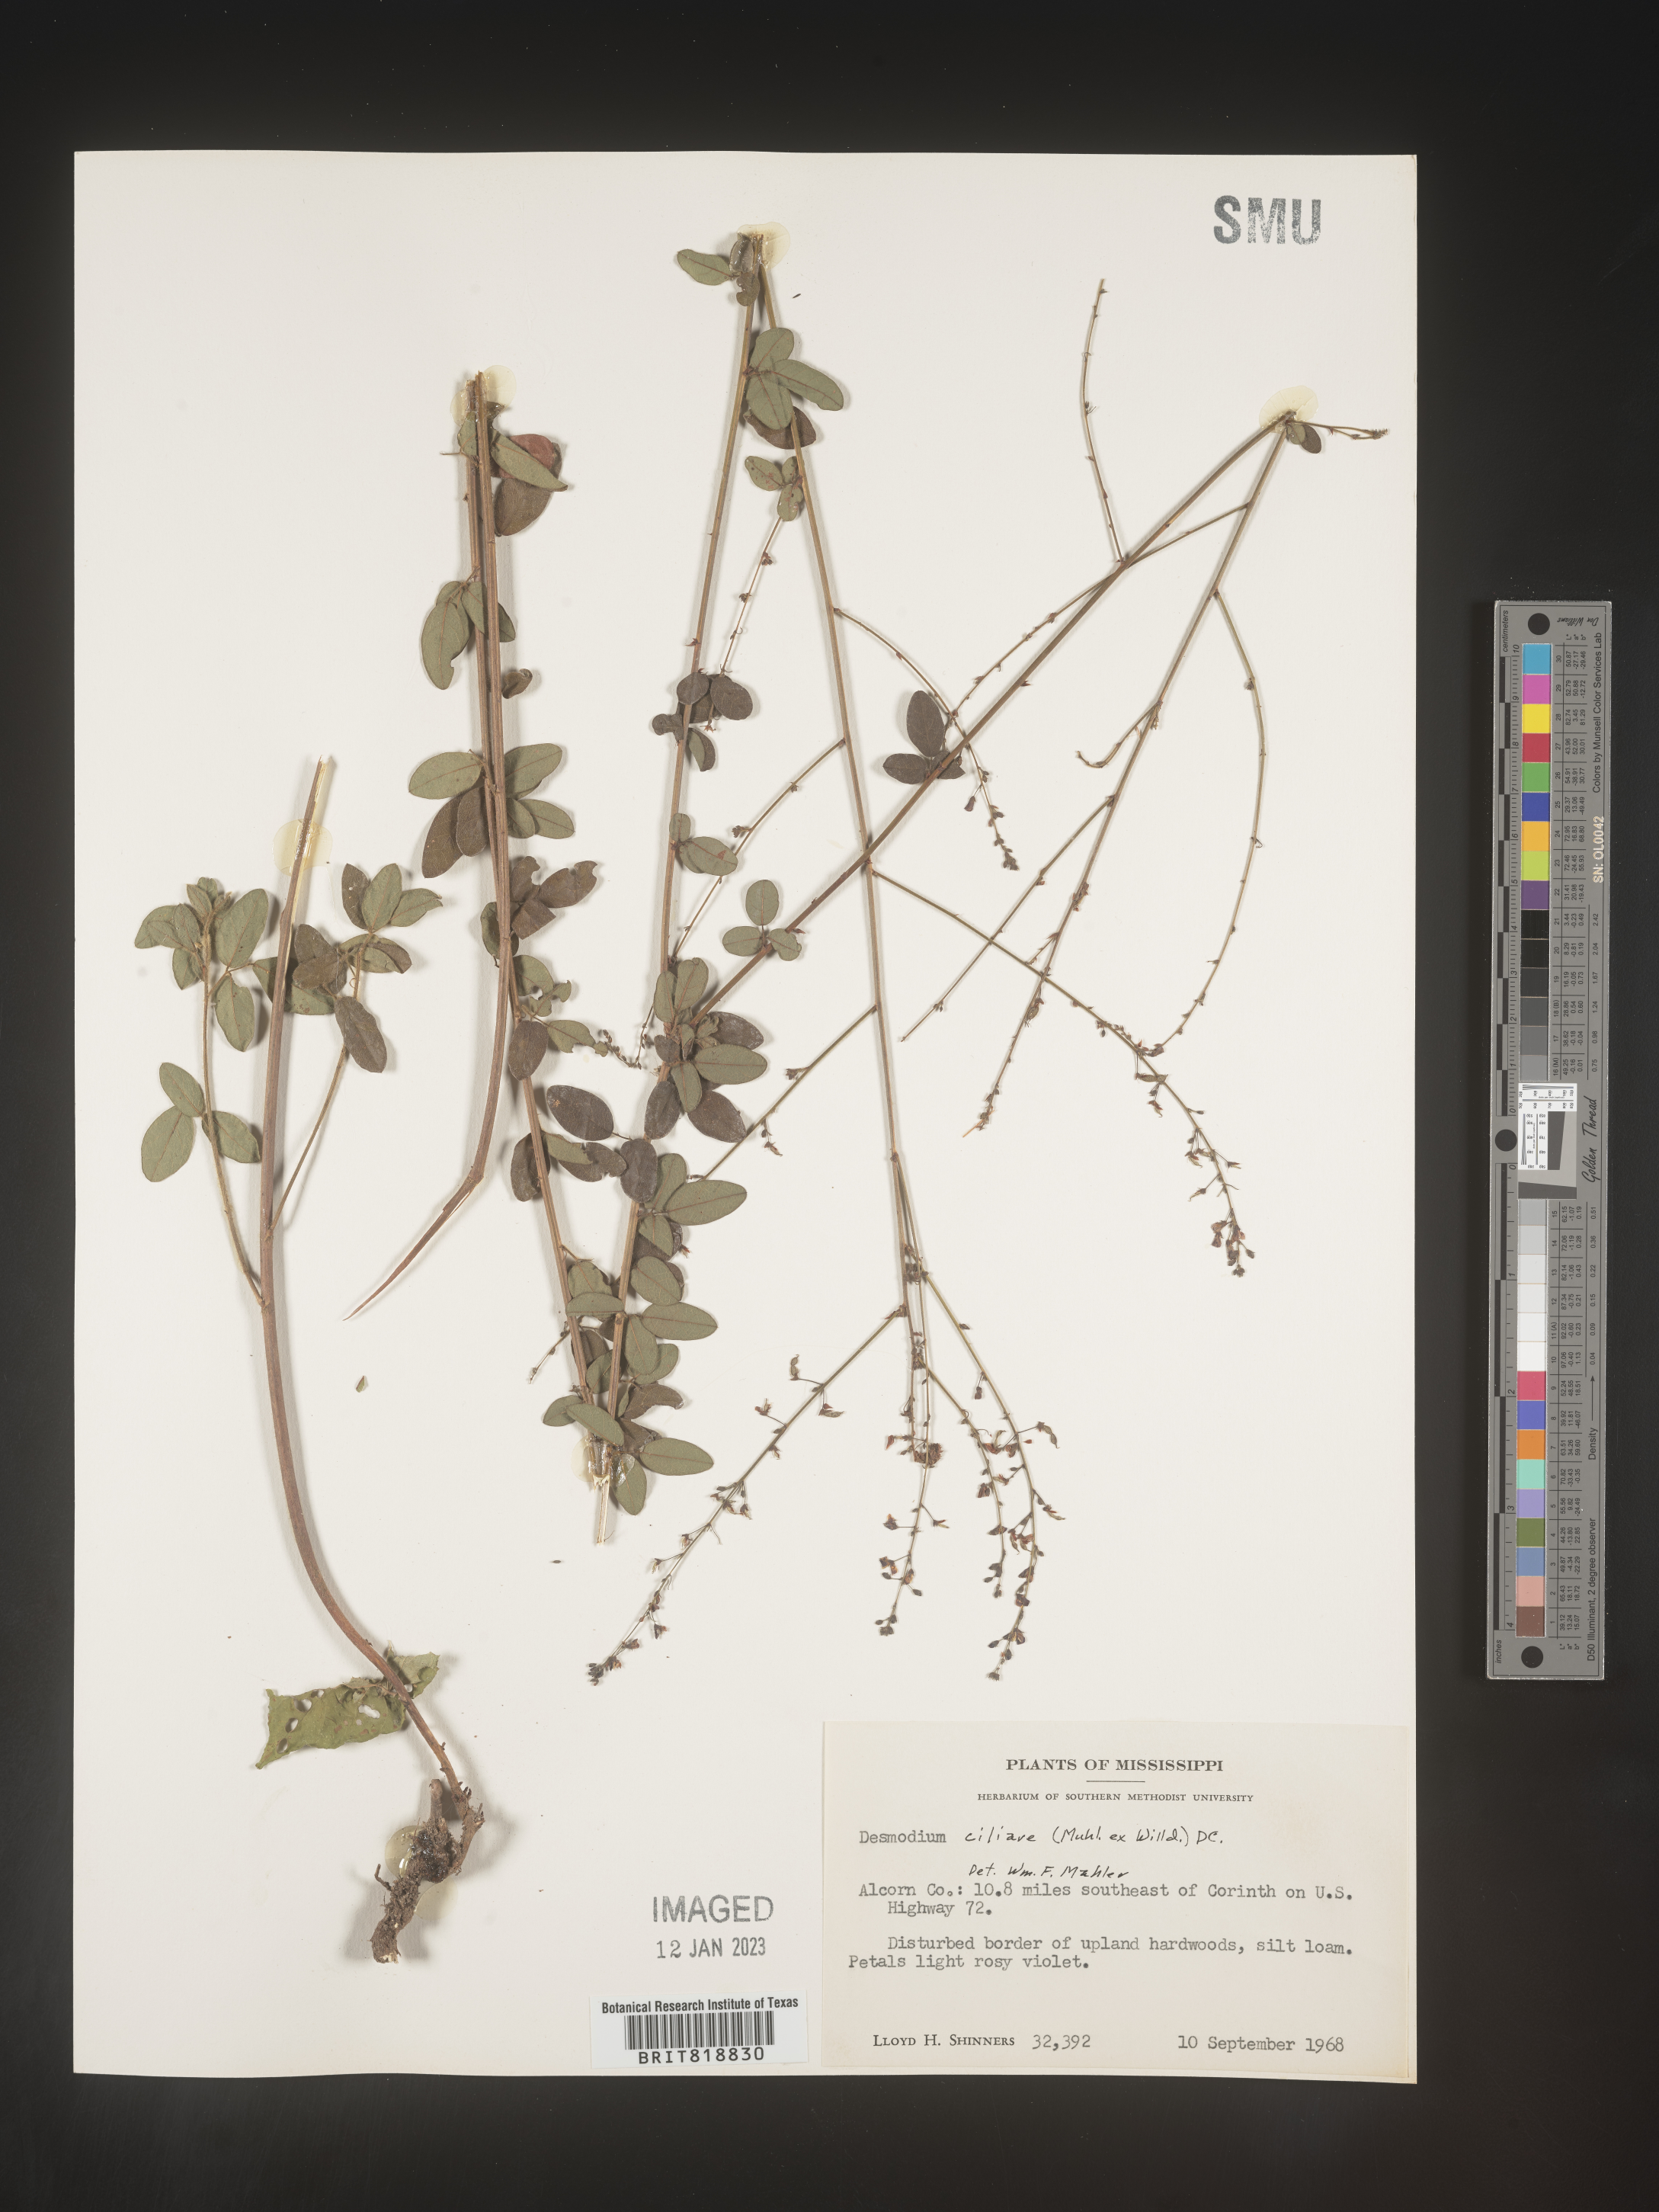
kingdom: Plantae
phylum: Tracheophyta
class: Magnoliopsida
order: Fabales
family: Fabaceae
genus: Desmodium
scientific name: Desmodium ciliare
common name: Hairy small-leaf ticktrefoil
